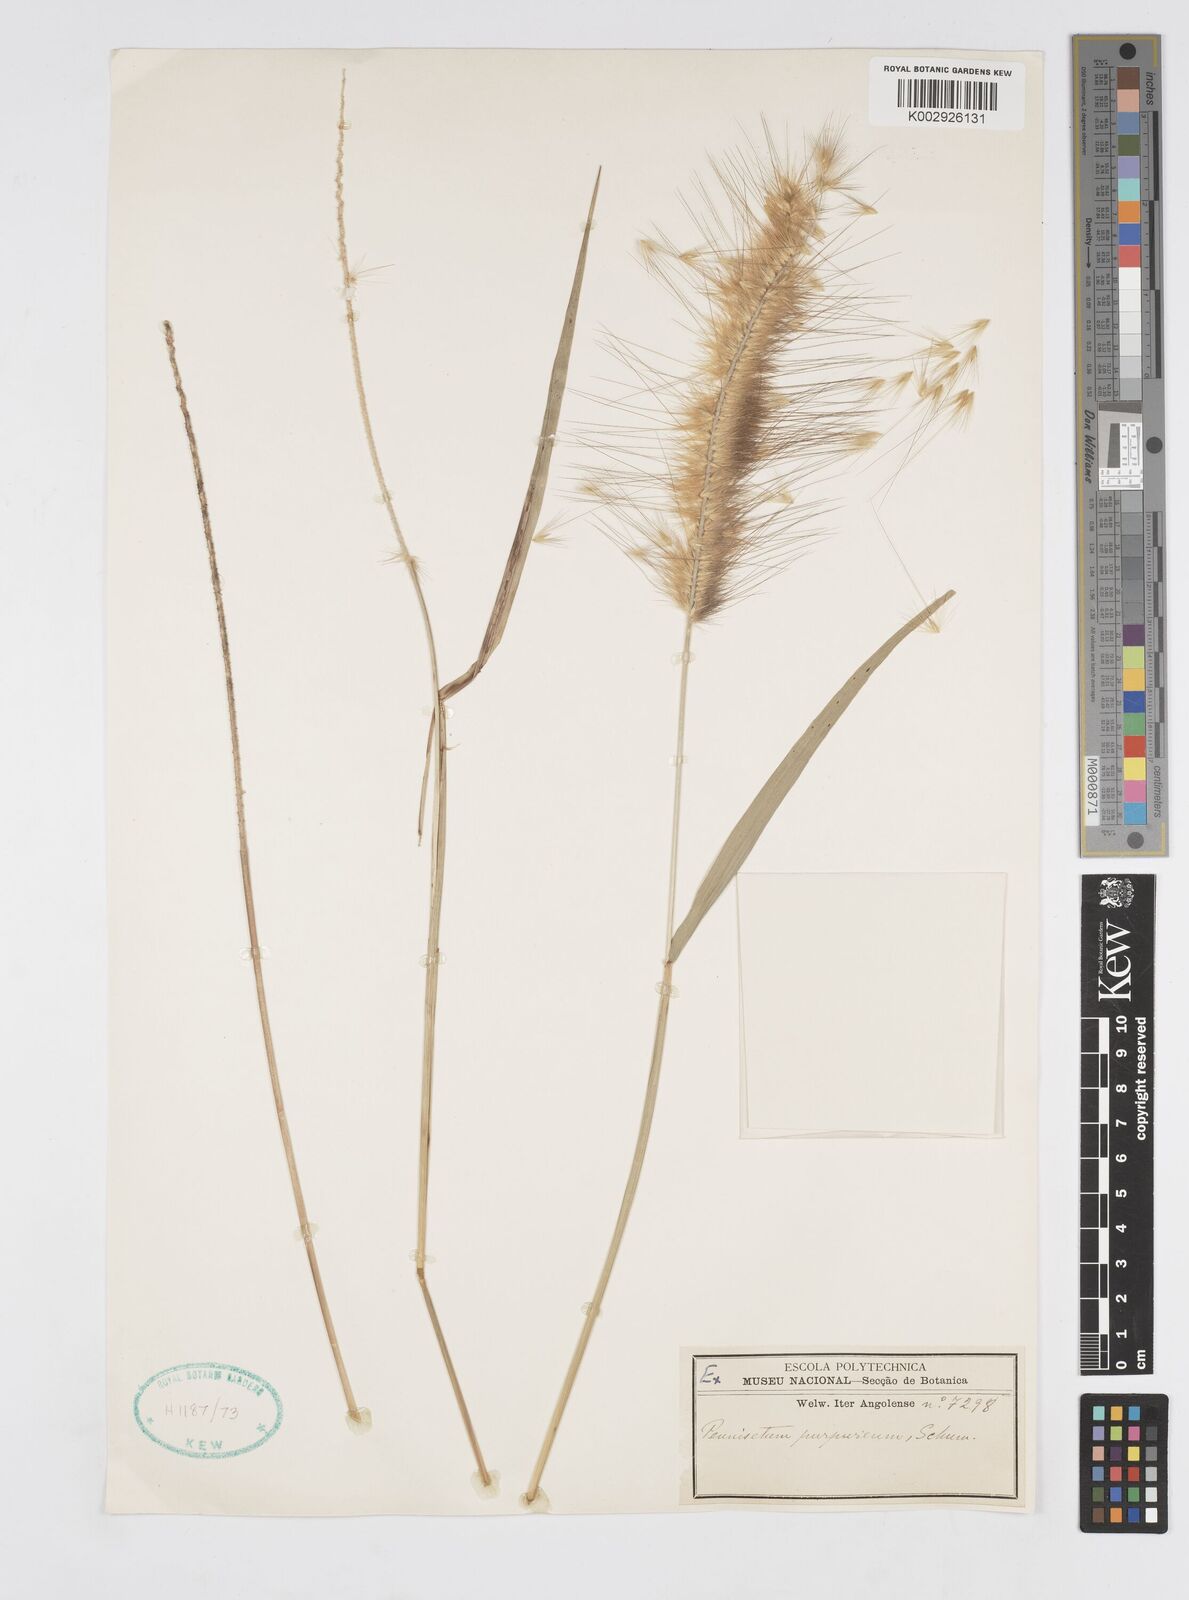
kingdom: Plantae
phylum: Tracheophyta
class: Liliopsida
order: Poales
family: Poaceae
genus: Cenchrus
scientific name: Cenchrus purpureus
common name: Elephant grass
